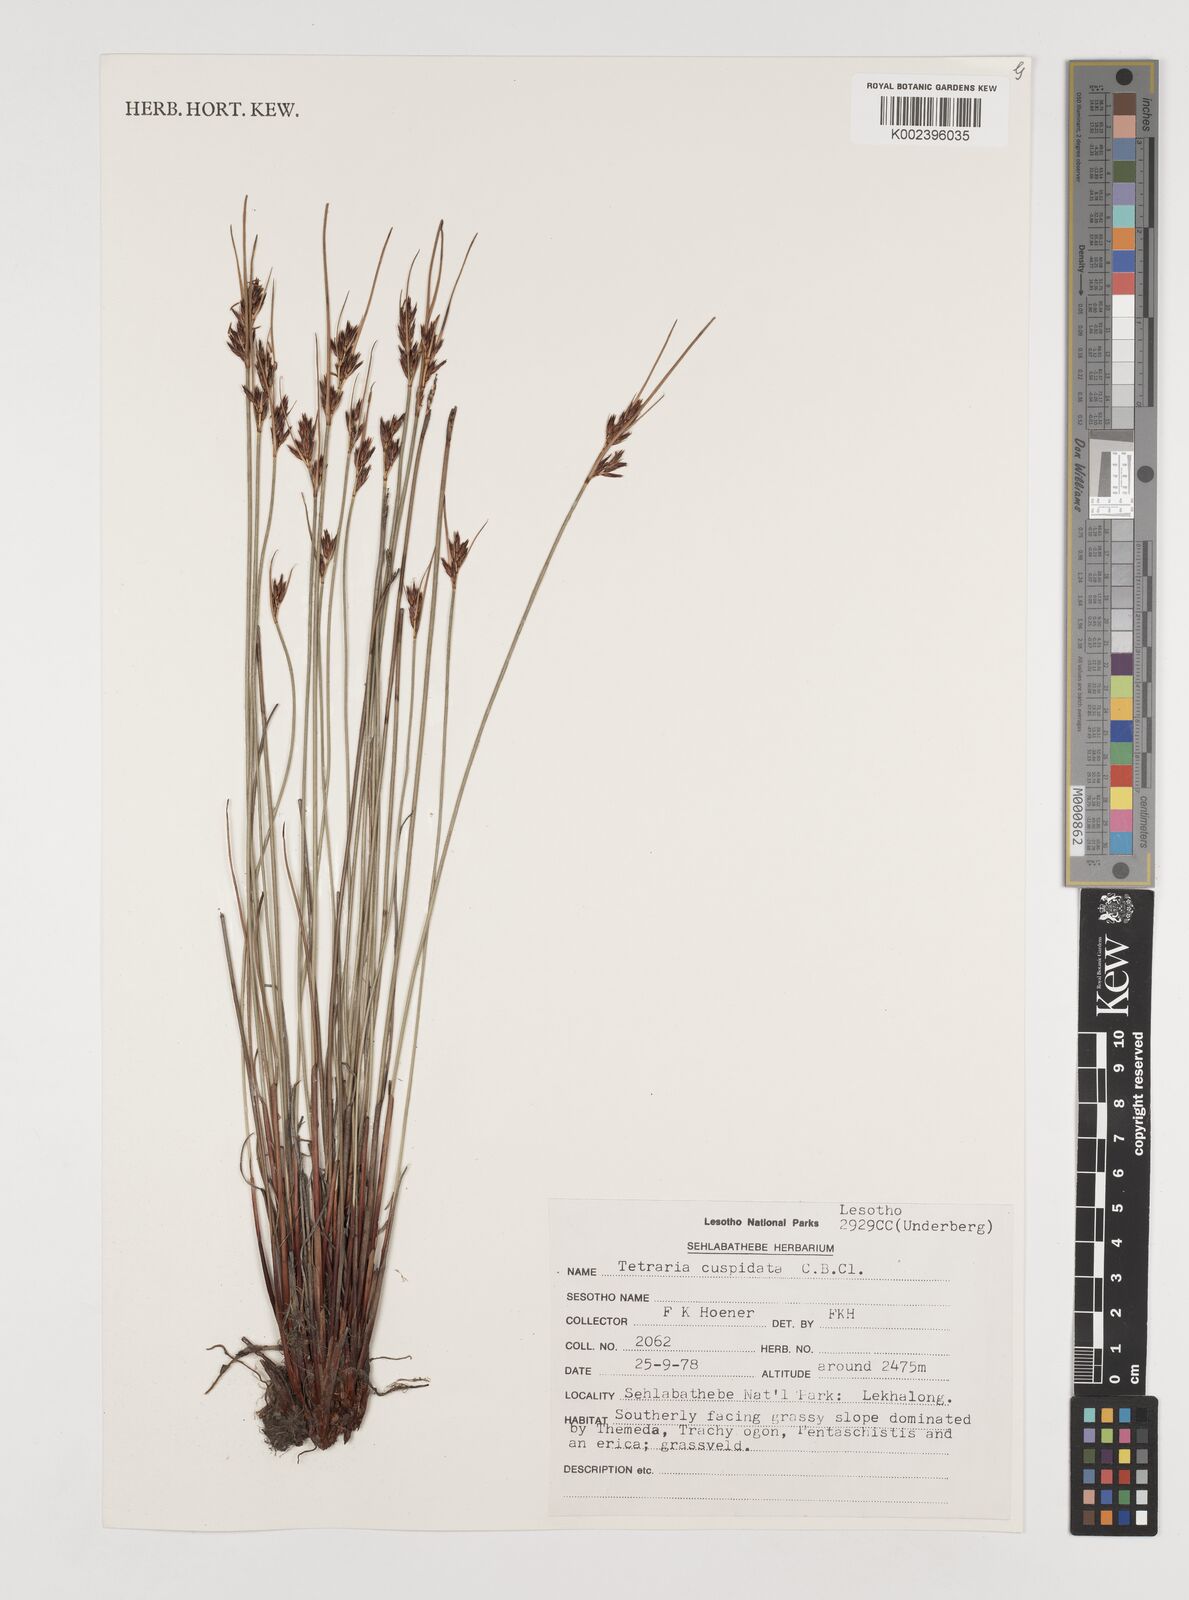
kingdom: Plantae
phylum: Tracheophyta
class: Liliopsida
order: Poales
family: Cyperaceae
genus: Schoenus
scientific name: Schoenus cuspidatus
